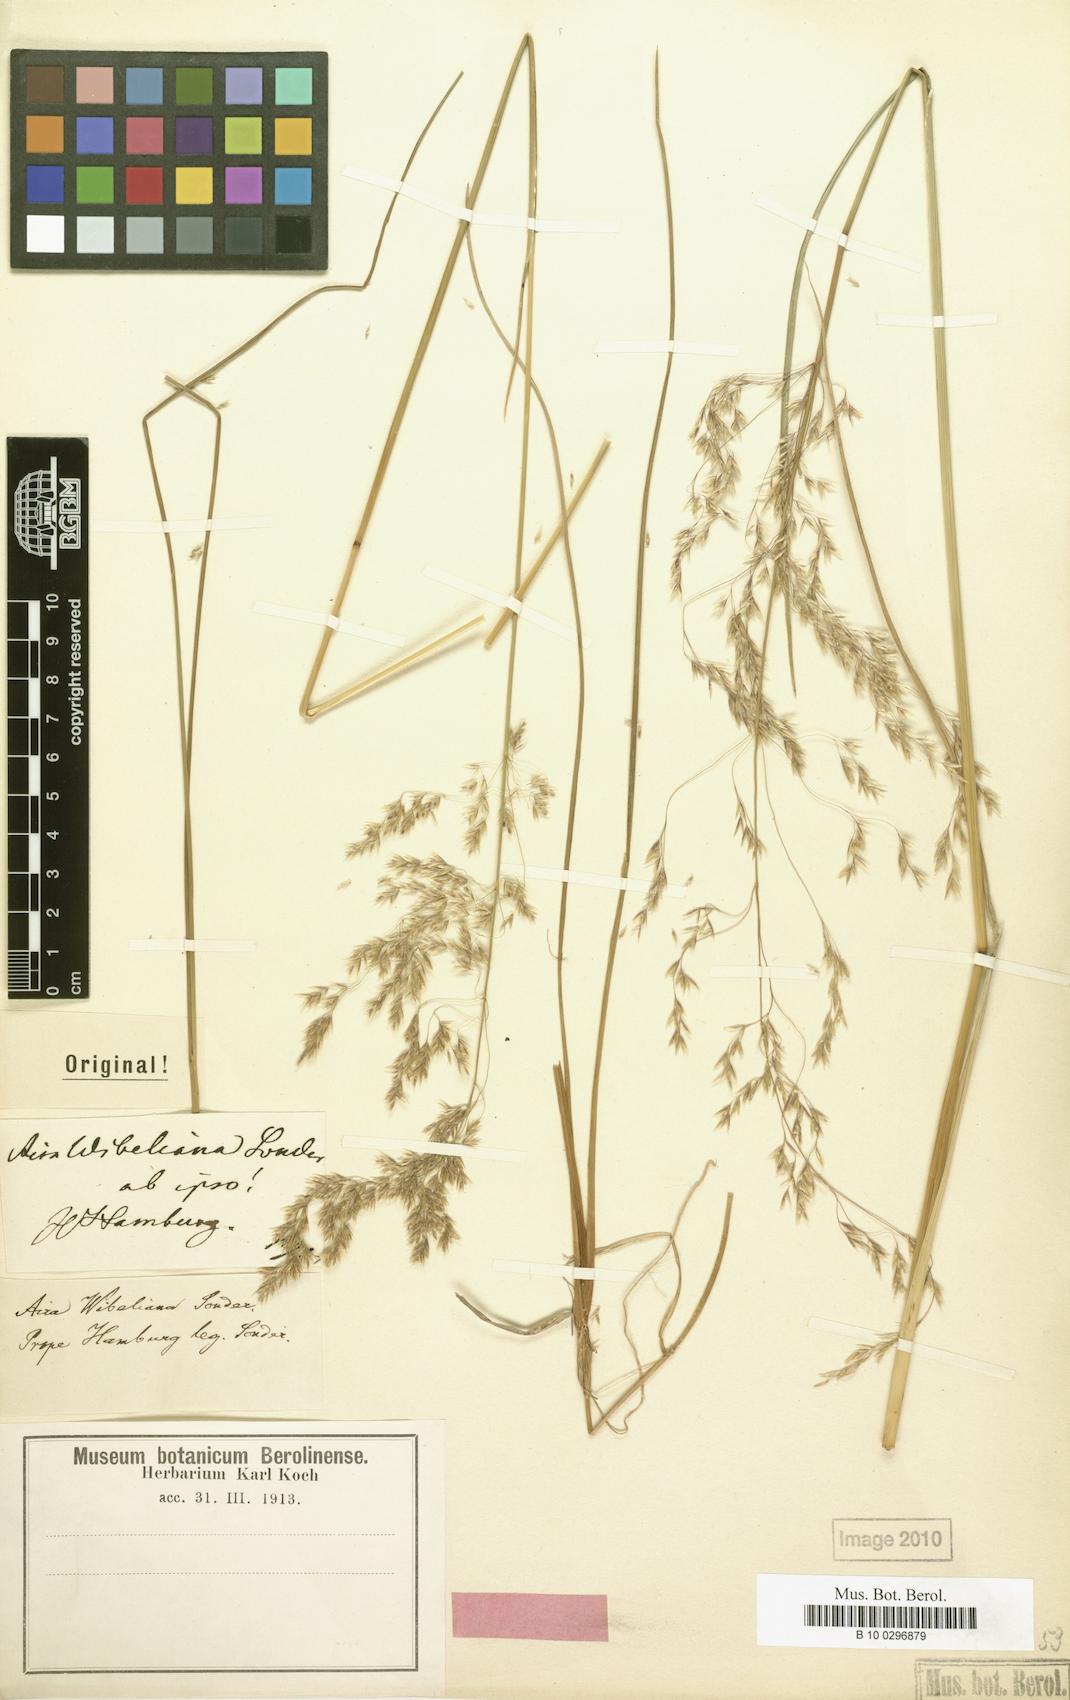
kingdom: Plantae
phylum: Tracheophyta
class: Liliopsida
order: Poales
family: Poaceae
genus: Deschampsia
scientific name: Deschampsia cespitosa
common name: Tufted hair-grass
